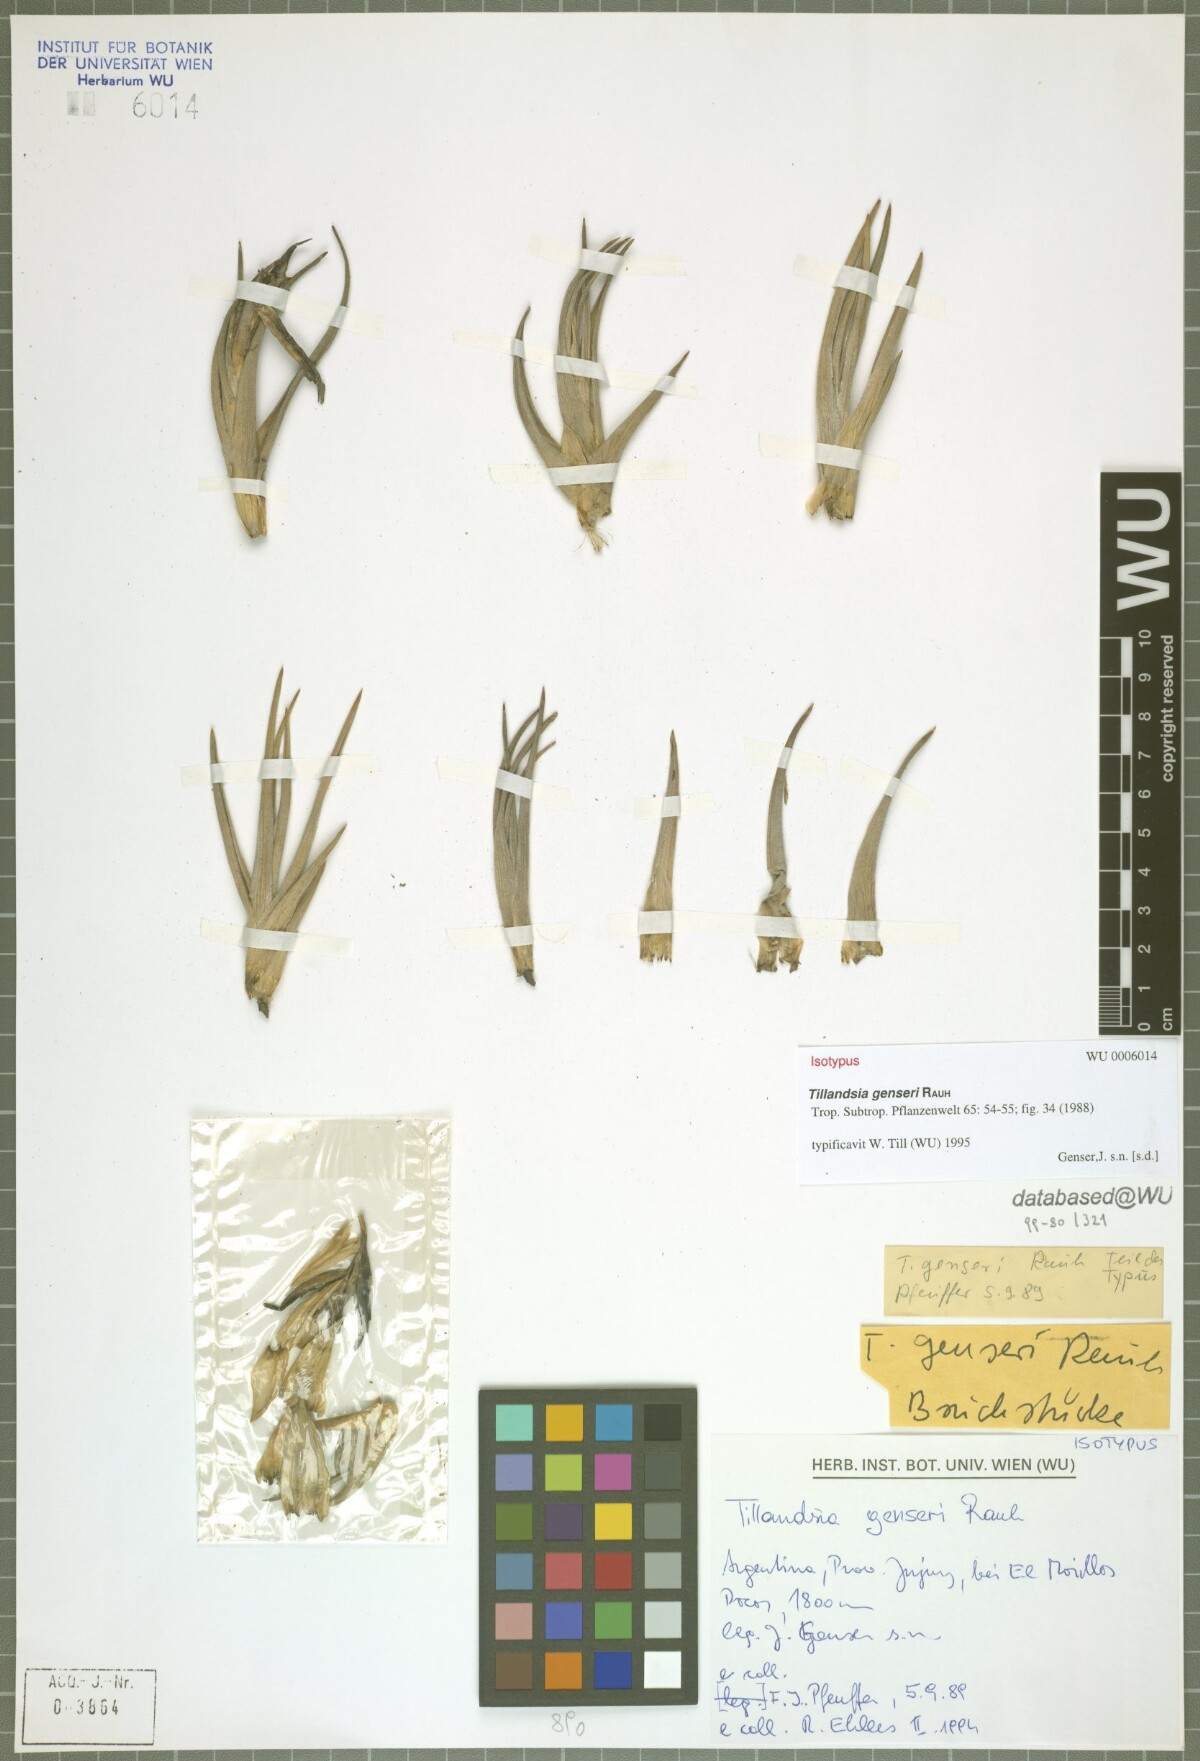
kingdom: Plantae
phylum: Tracheophyta
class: Liliopsida
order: Poales
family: Bromeliaceae
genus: Tillandsia
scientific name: Tillandsia genseri
